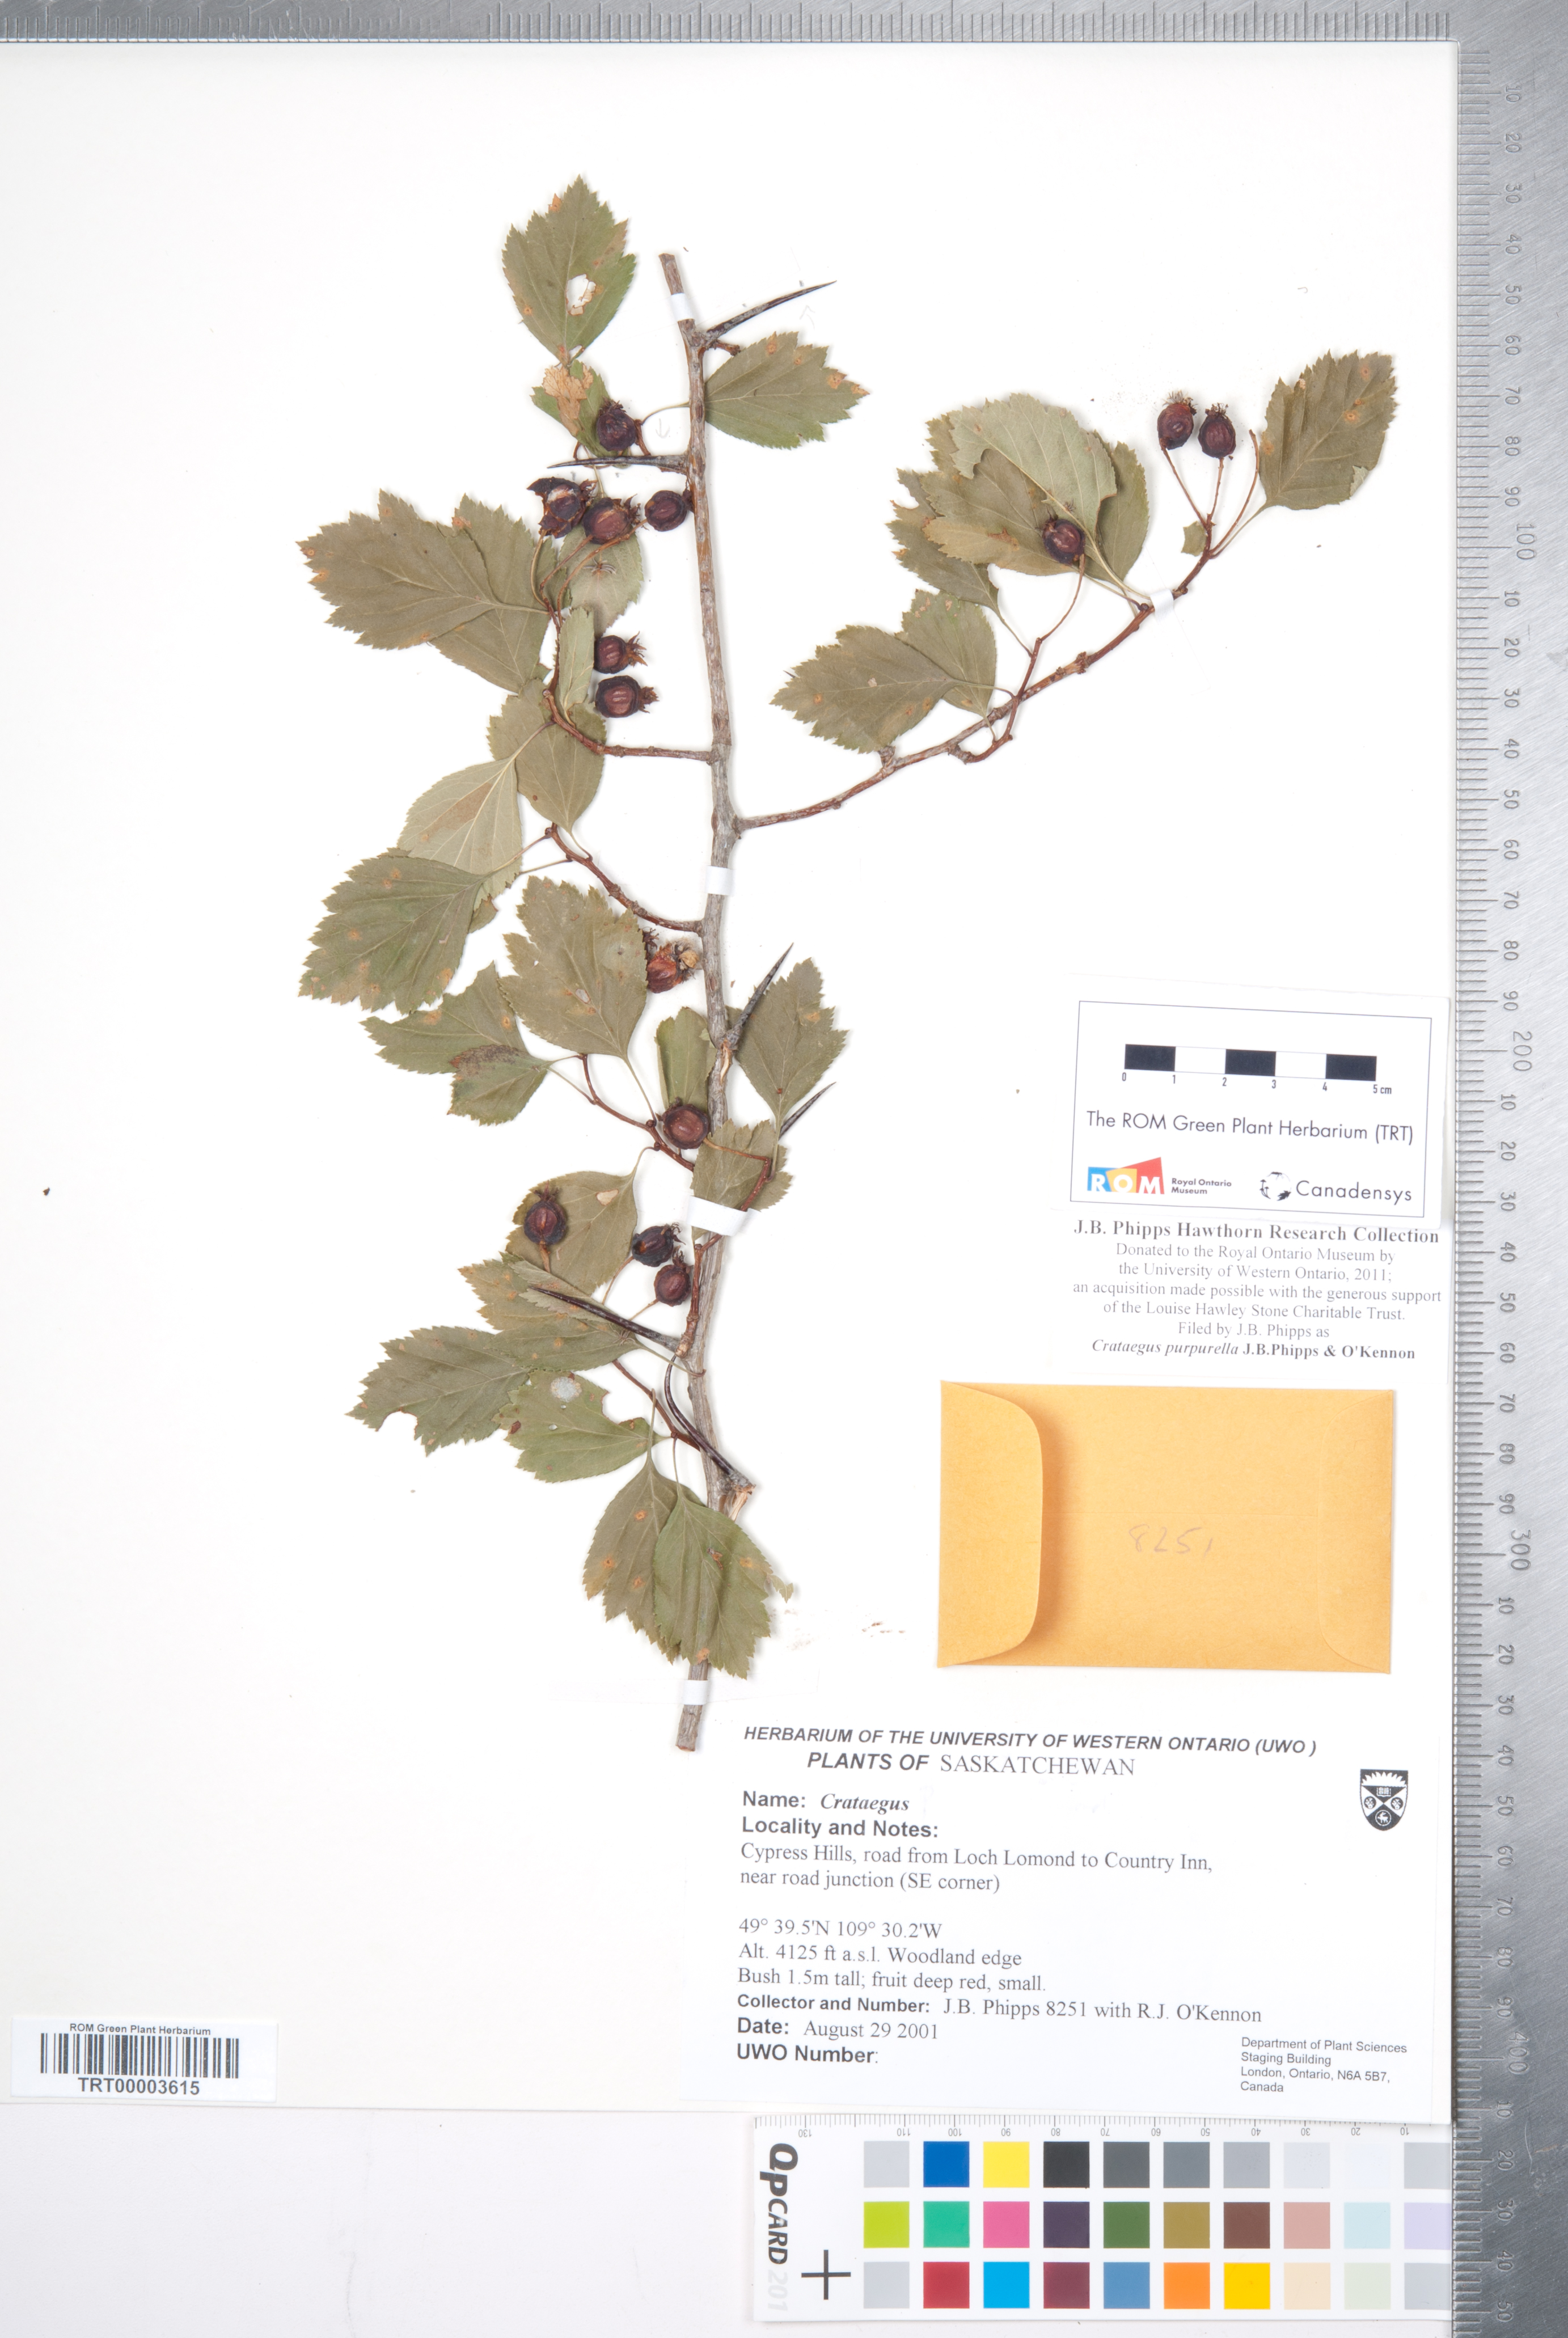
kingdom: Plantae
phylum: Tracheophyta
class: Magnoliopsida
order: Rosales
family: Rosaceae
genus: Crataegus
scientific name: Crataegus purpurella
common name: Loch lomond hawthorn
